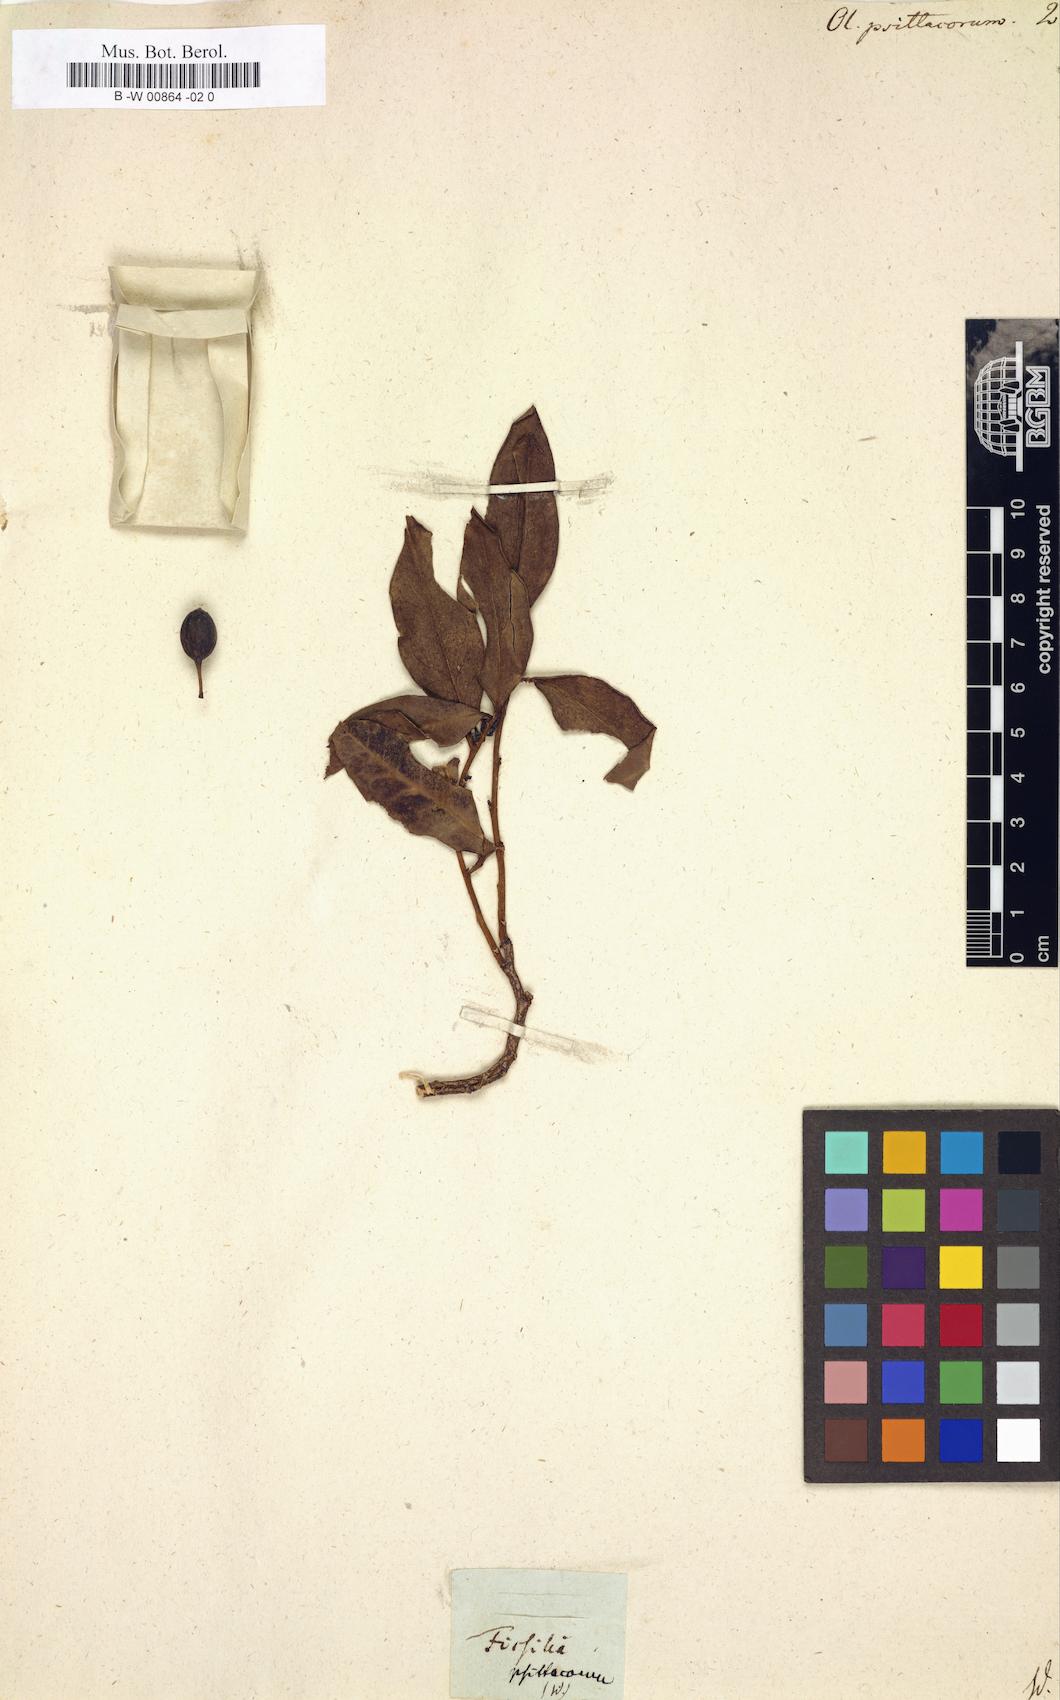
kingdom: Plantae
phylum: Tracheophyta
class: Magnoliopsida
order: Santalales
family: Olacaceae
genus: Olax
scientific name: Olax psittacorum
